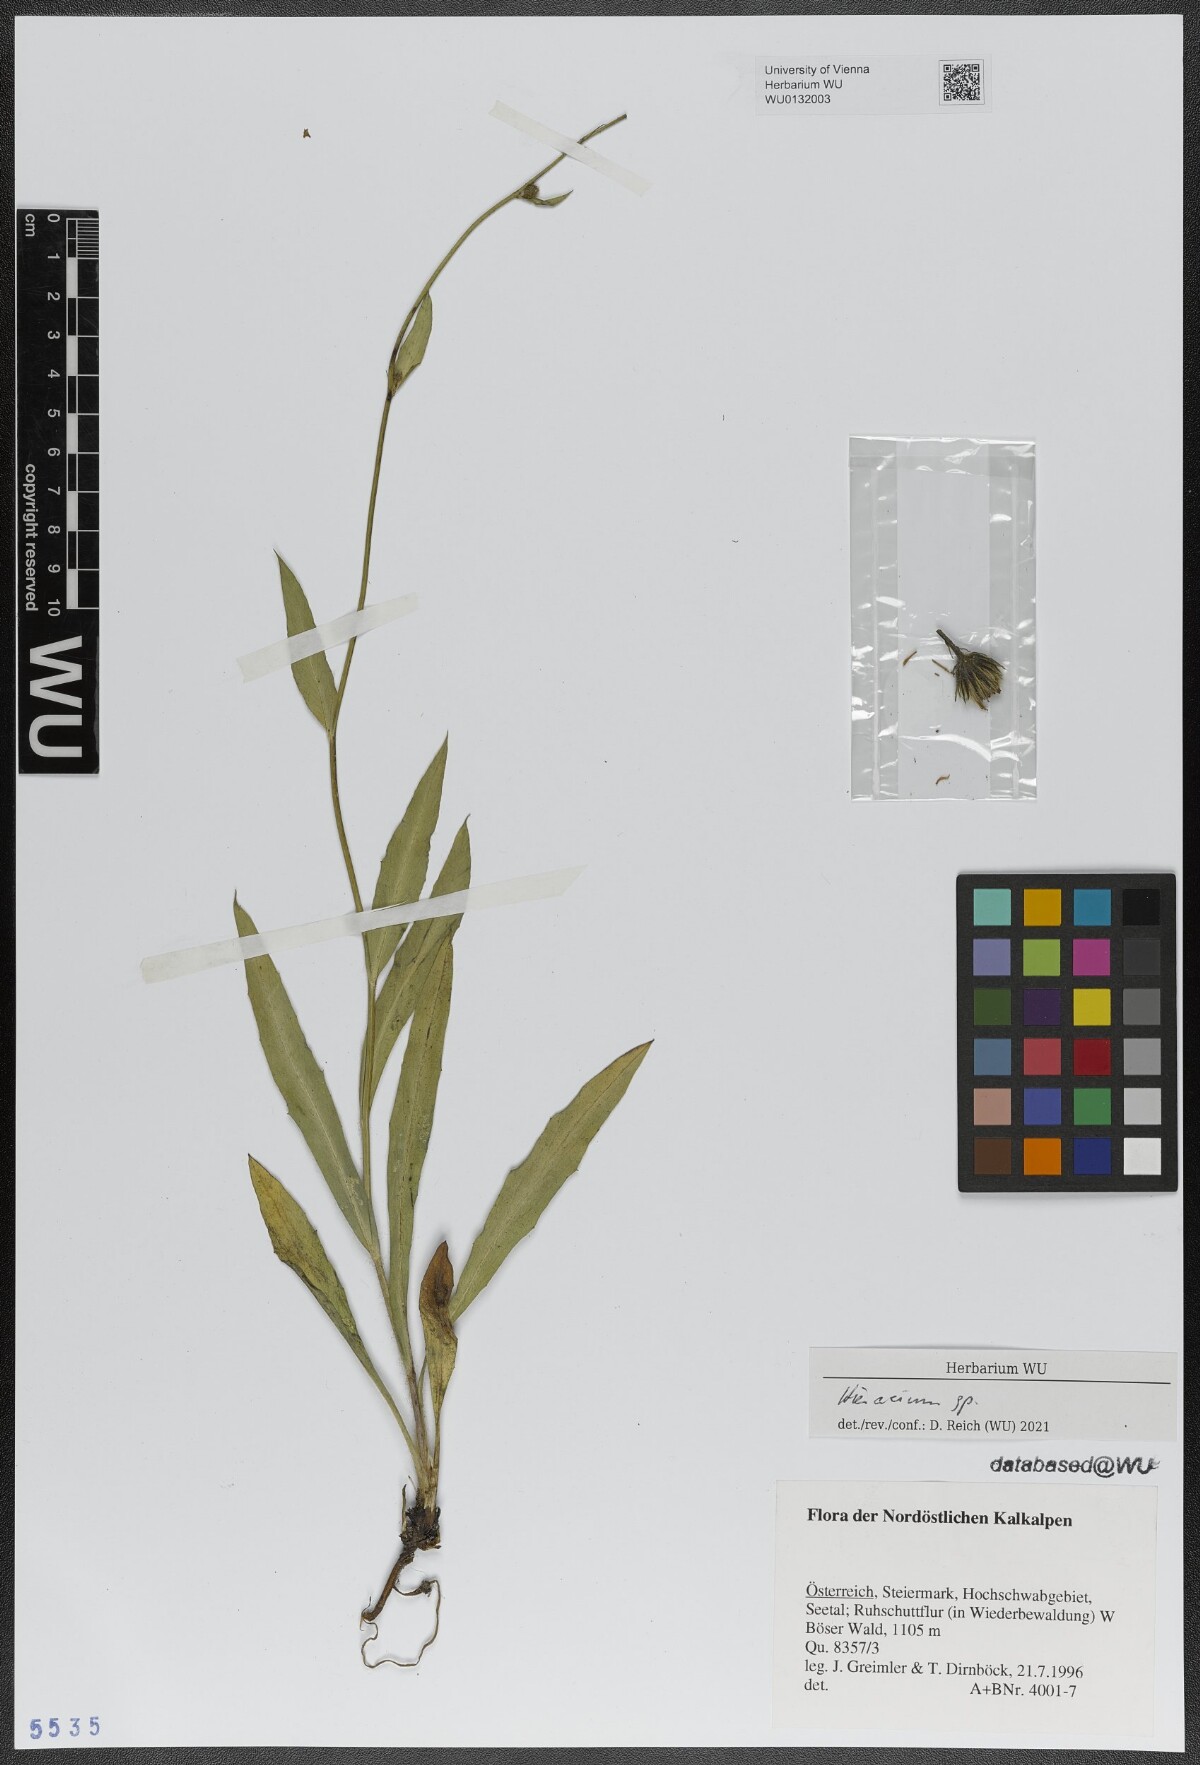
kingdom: Plantae
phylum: Tracheophyta
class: Magnoliopsida
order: Asterales
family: Asteraceae
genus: Hieracium
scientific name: Hieracium glaucum
